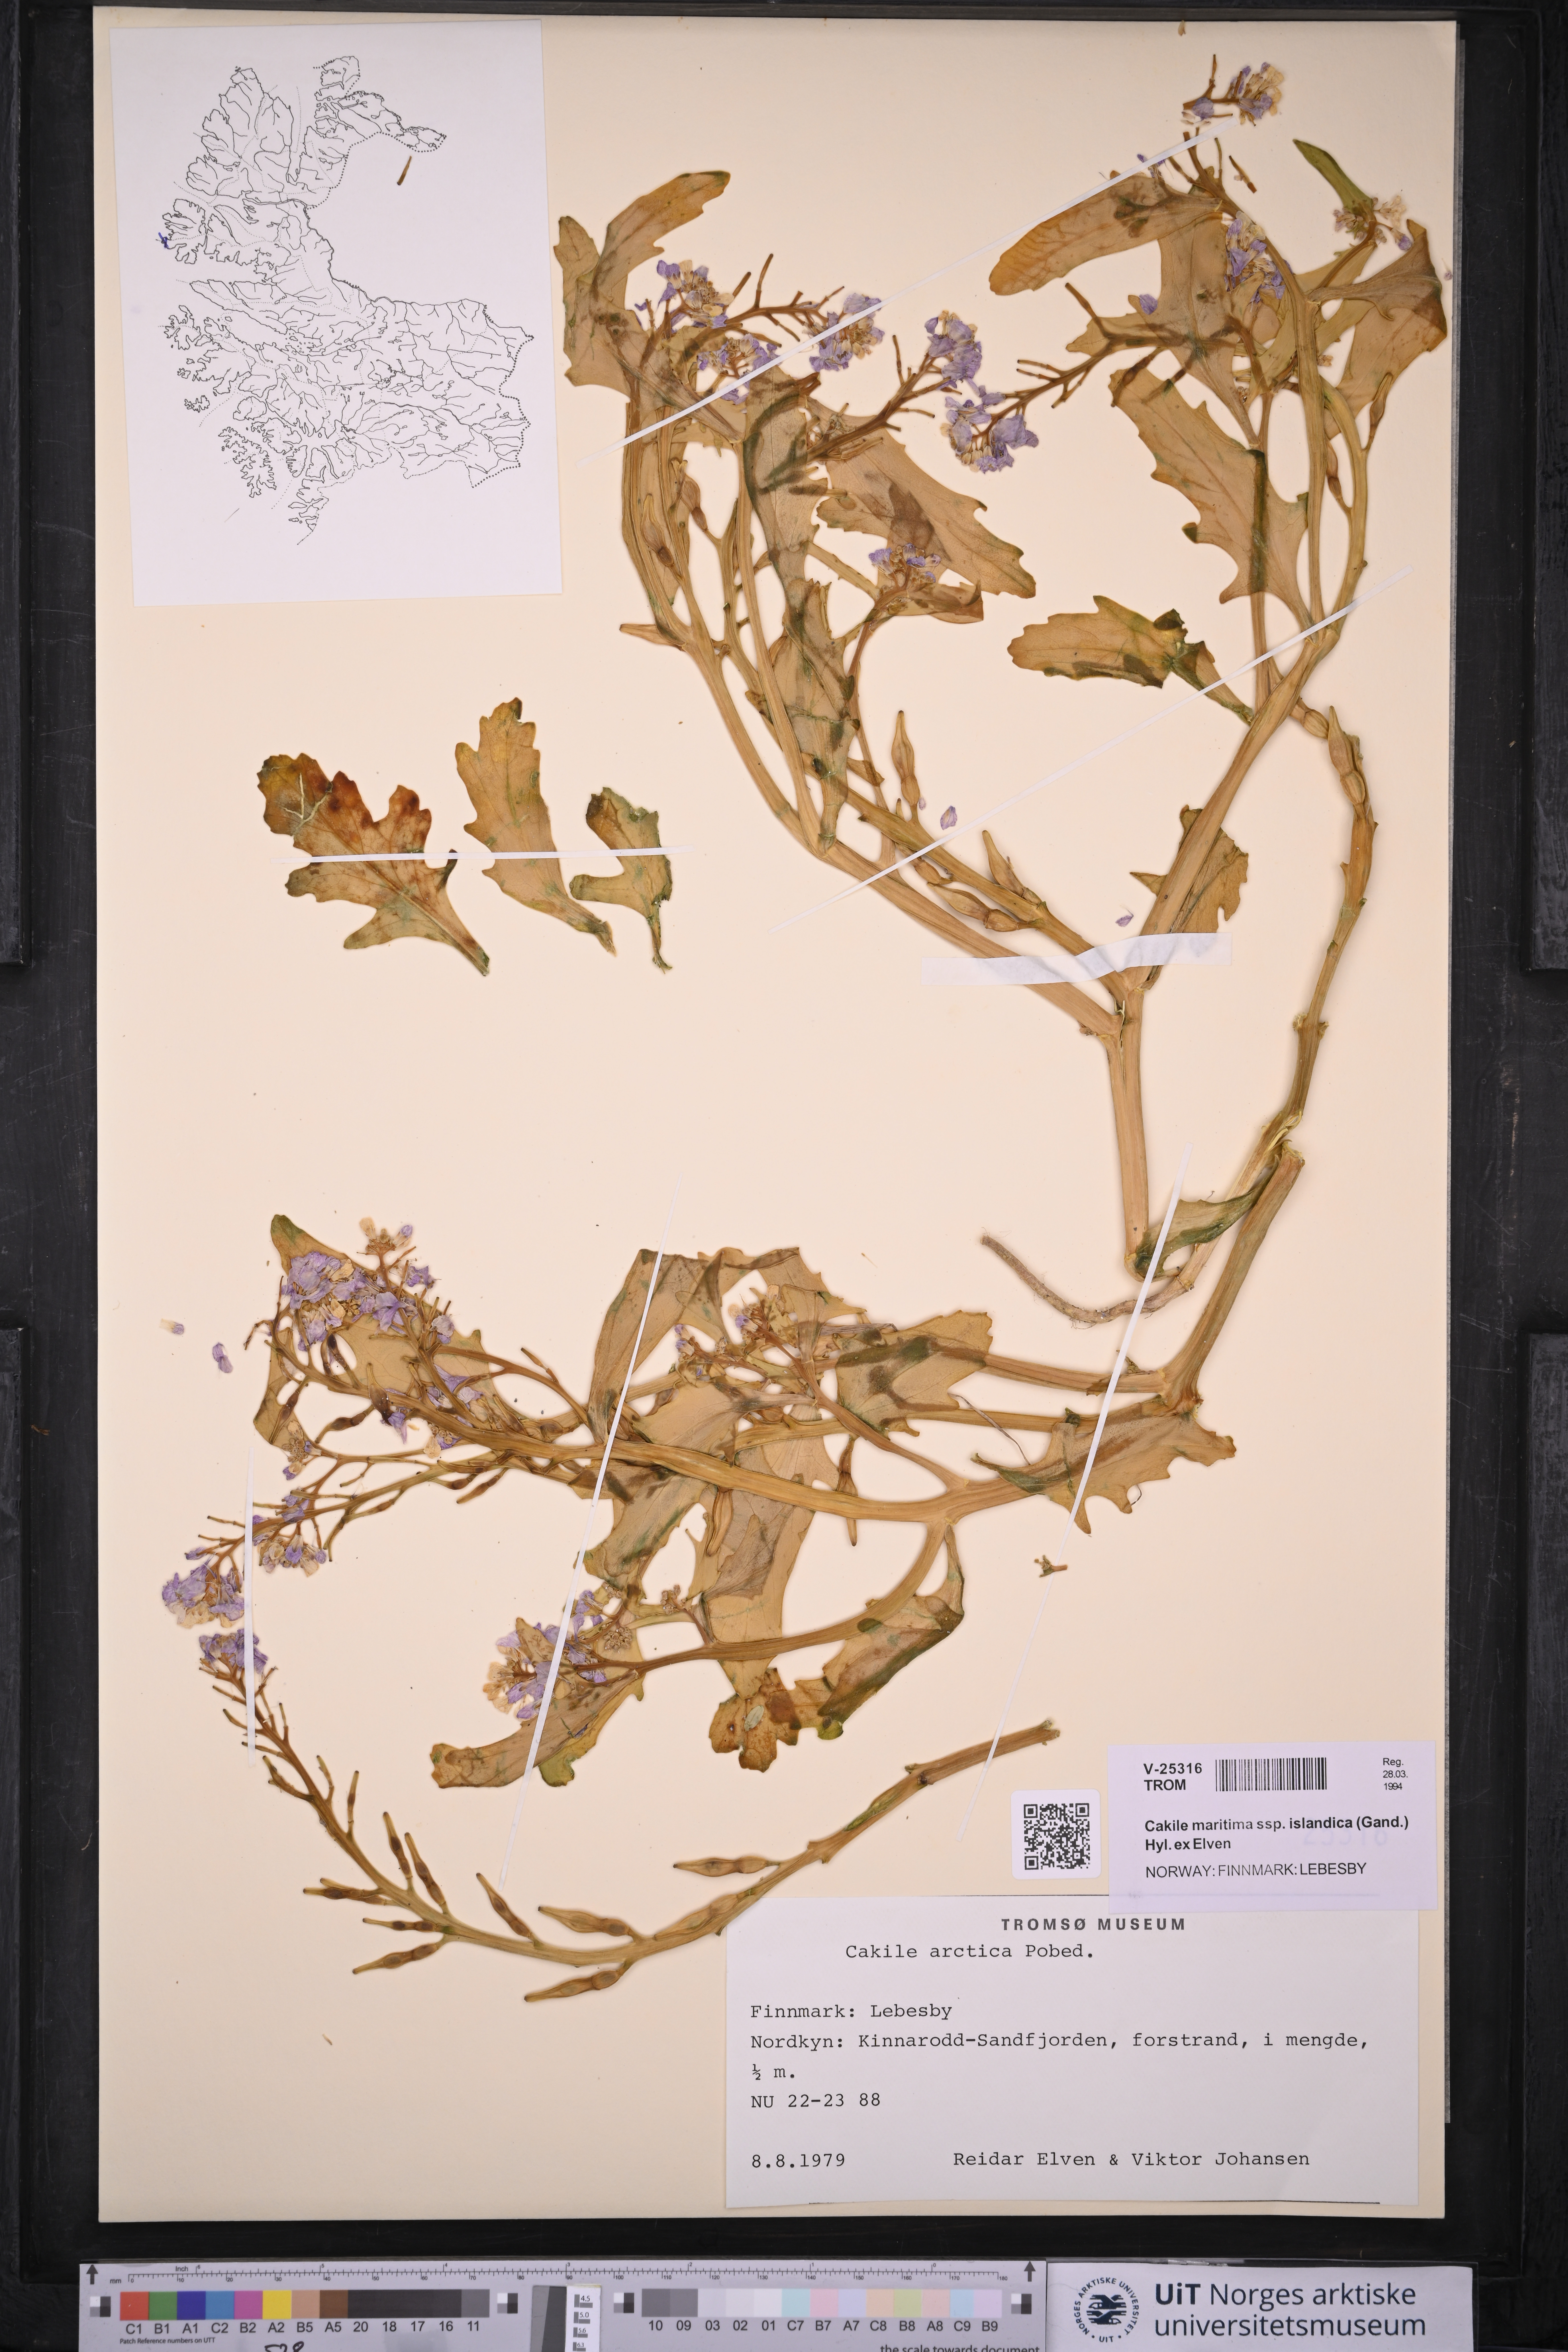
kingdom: Plantae
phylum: Tracheophyta
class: Magnoliopsida
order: Brassicales
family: Brassicaceae
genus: Cakile
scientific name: Cakile arctica
